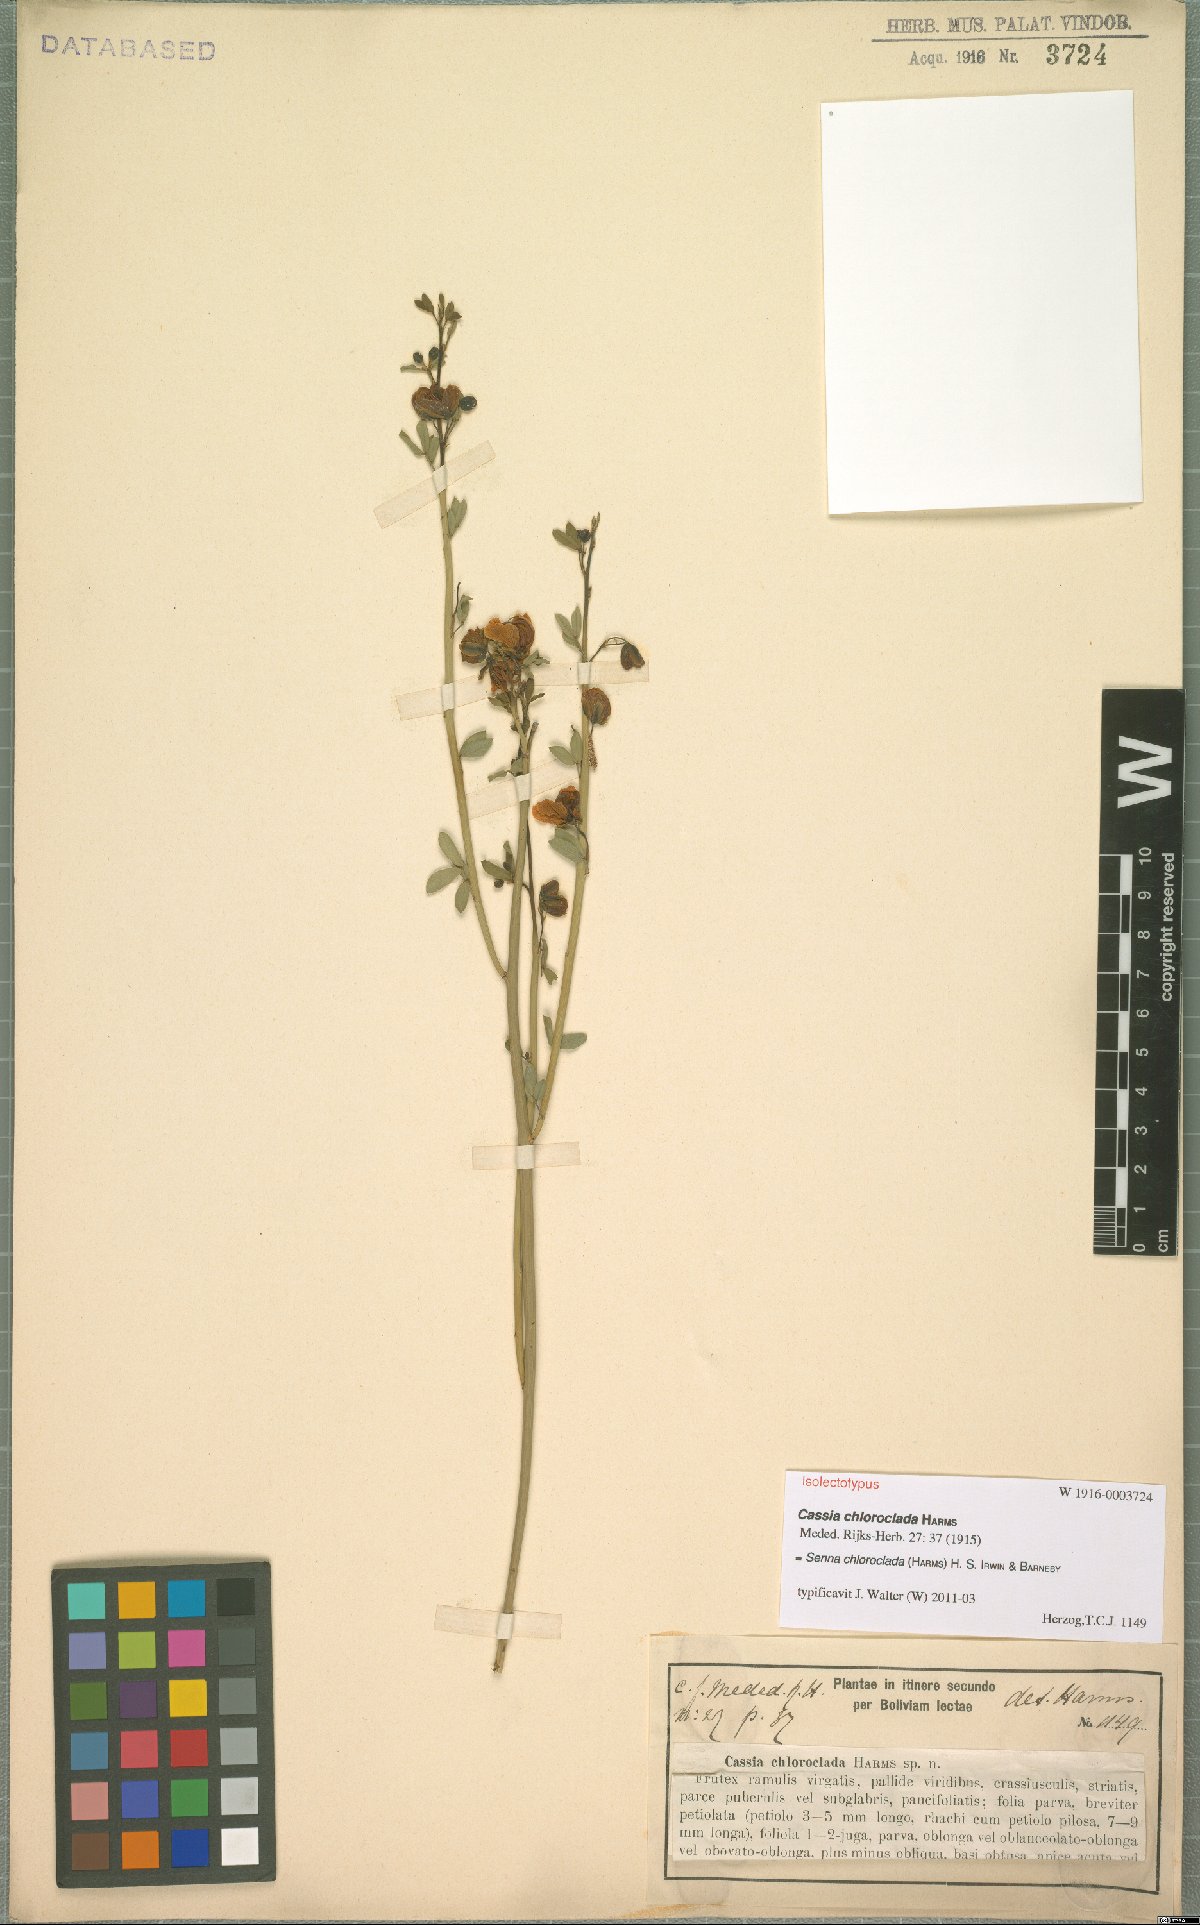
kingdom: Plantae
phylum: Tracheophyta
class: Magnoliopsida
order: Fabales
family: Fabaceae
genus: Senna
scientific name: Senna chloroclada
